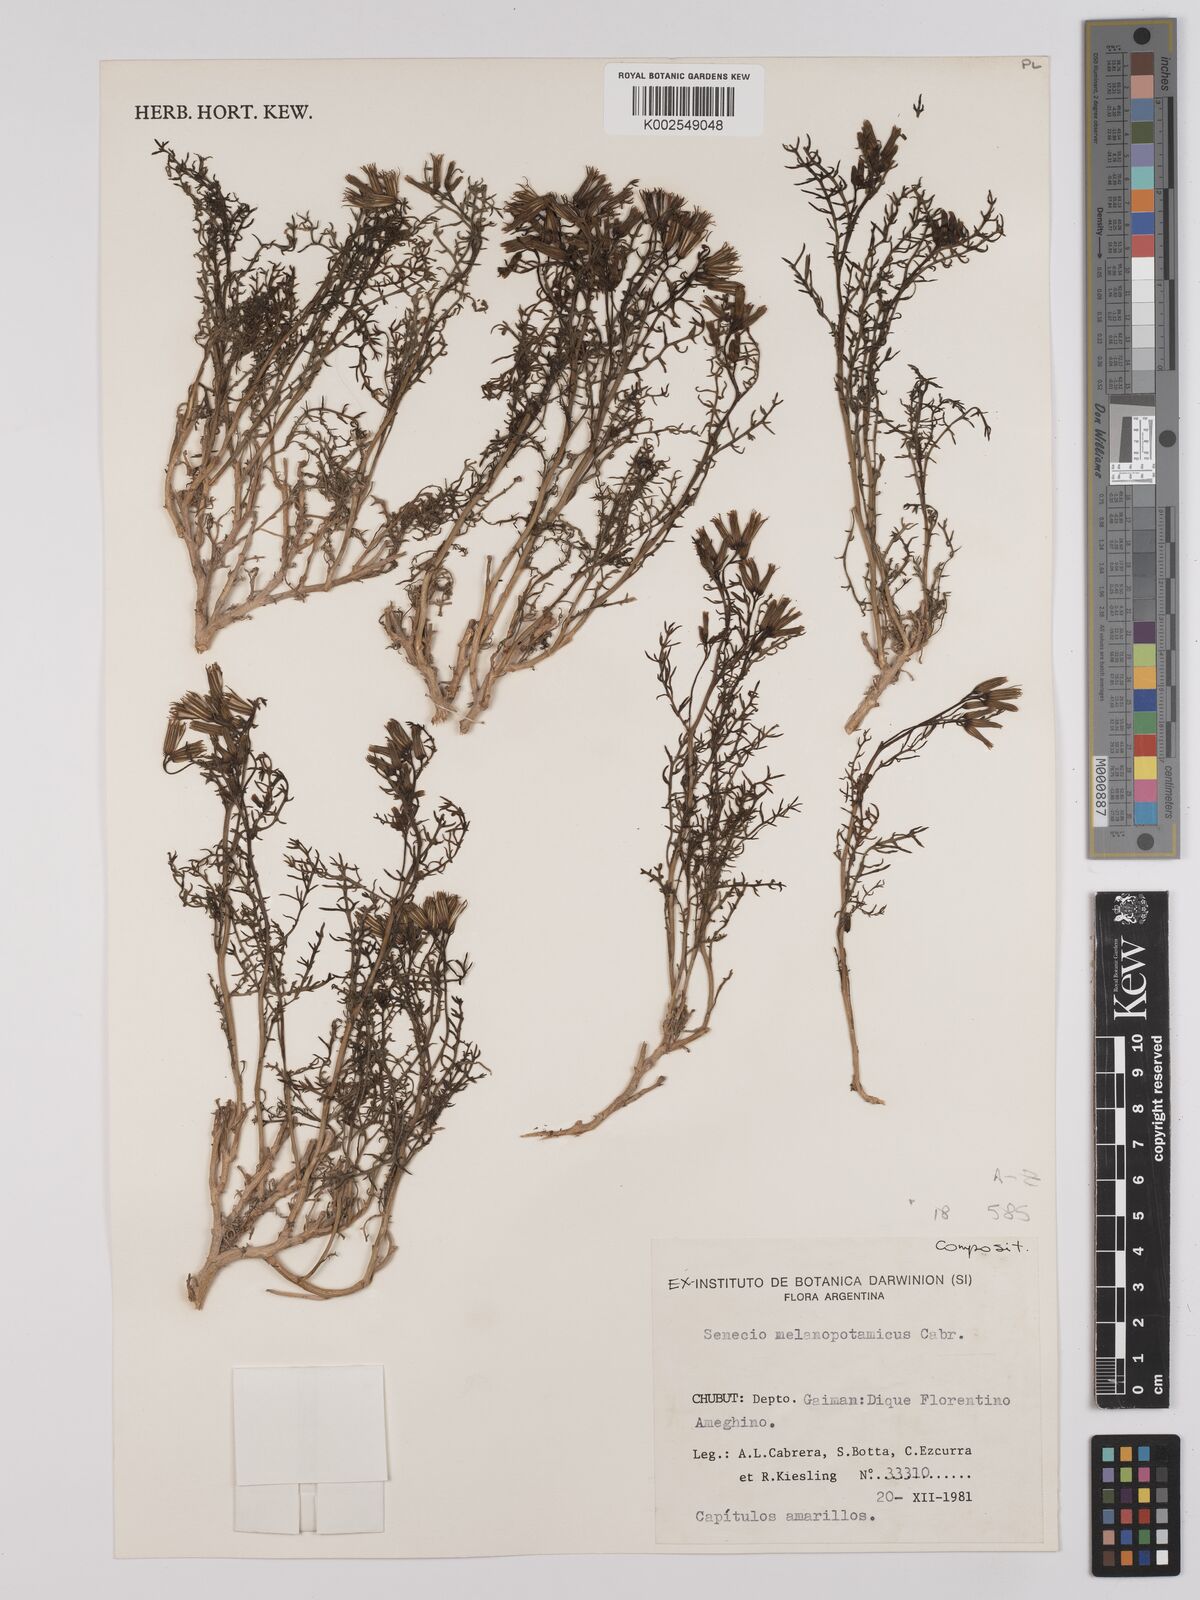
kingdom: Plantae
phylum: Tracheophyta
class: Magnoliopsida
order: Asterales
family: Asteraceae
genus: Senecio
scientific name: Senecio melanopotamicus
